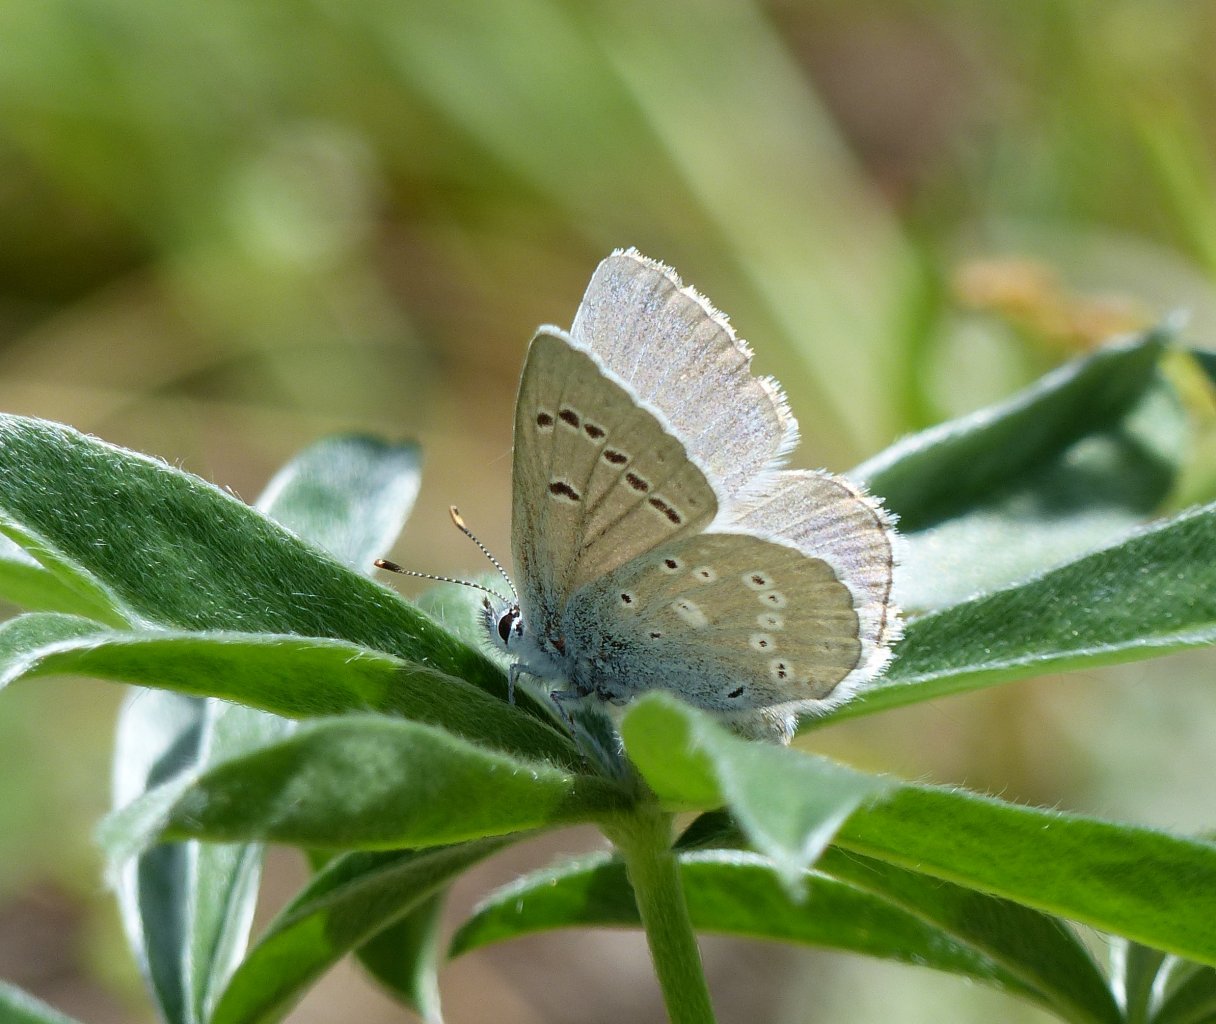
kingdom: Animalia
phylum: Arthropoda
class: Insecta
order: Lepidoptera
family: Lycaenidae
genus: Icaricia
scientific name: Icaricia icarioides
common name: Boisduval's Blue
